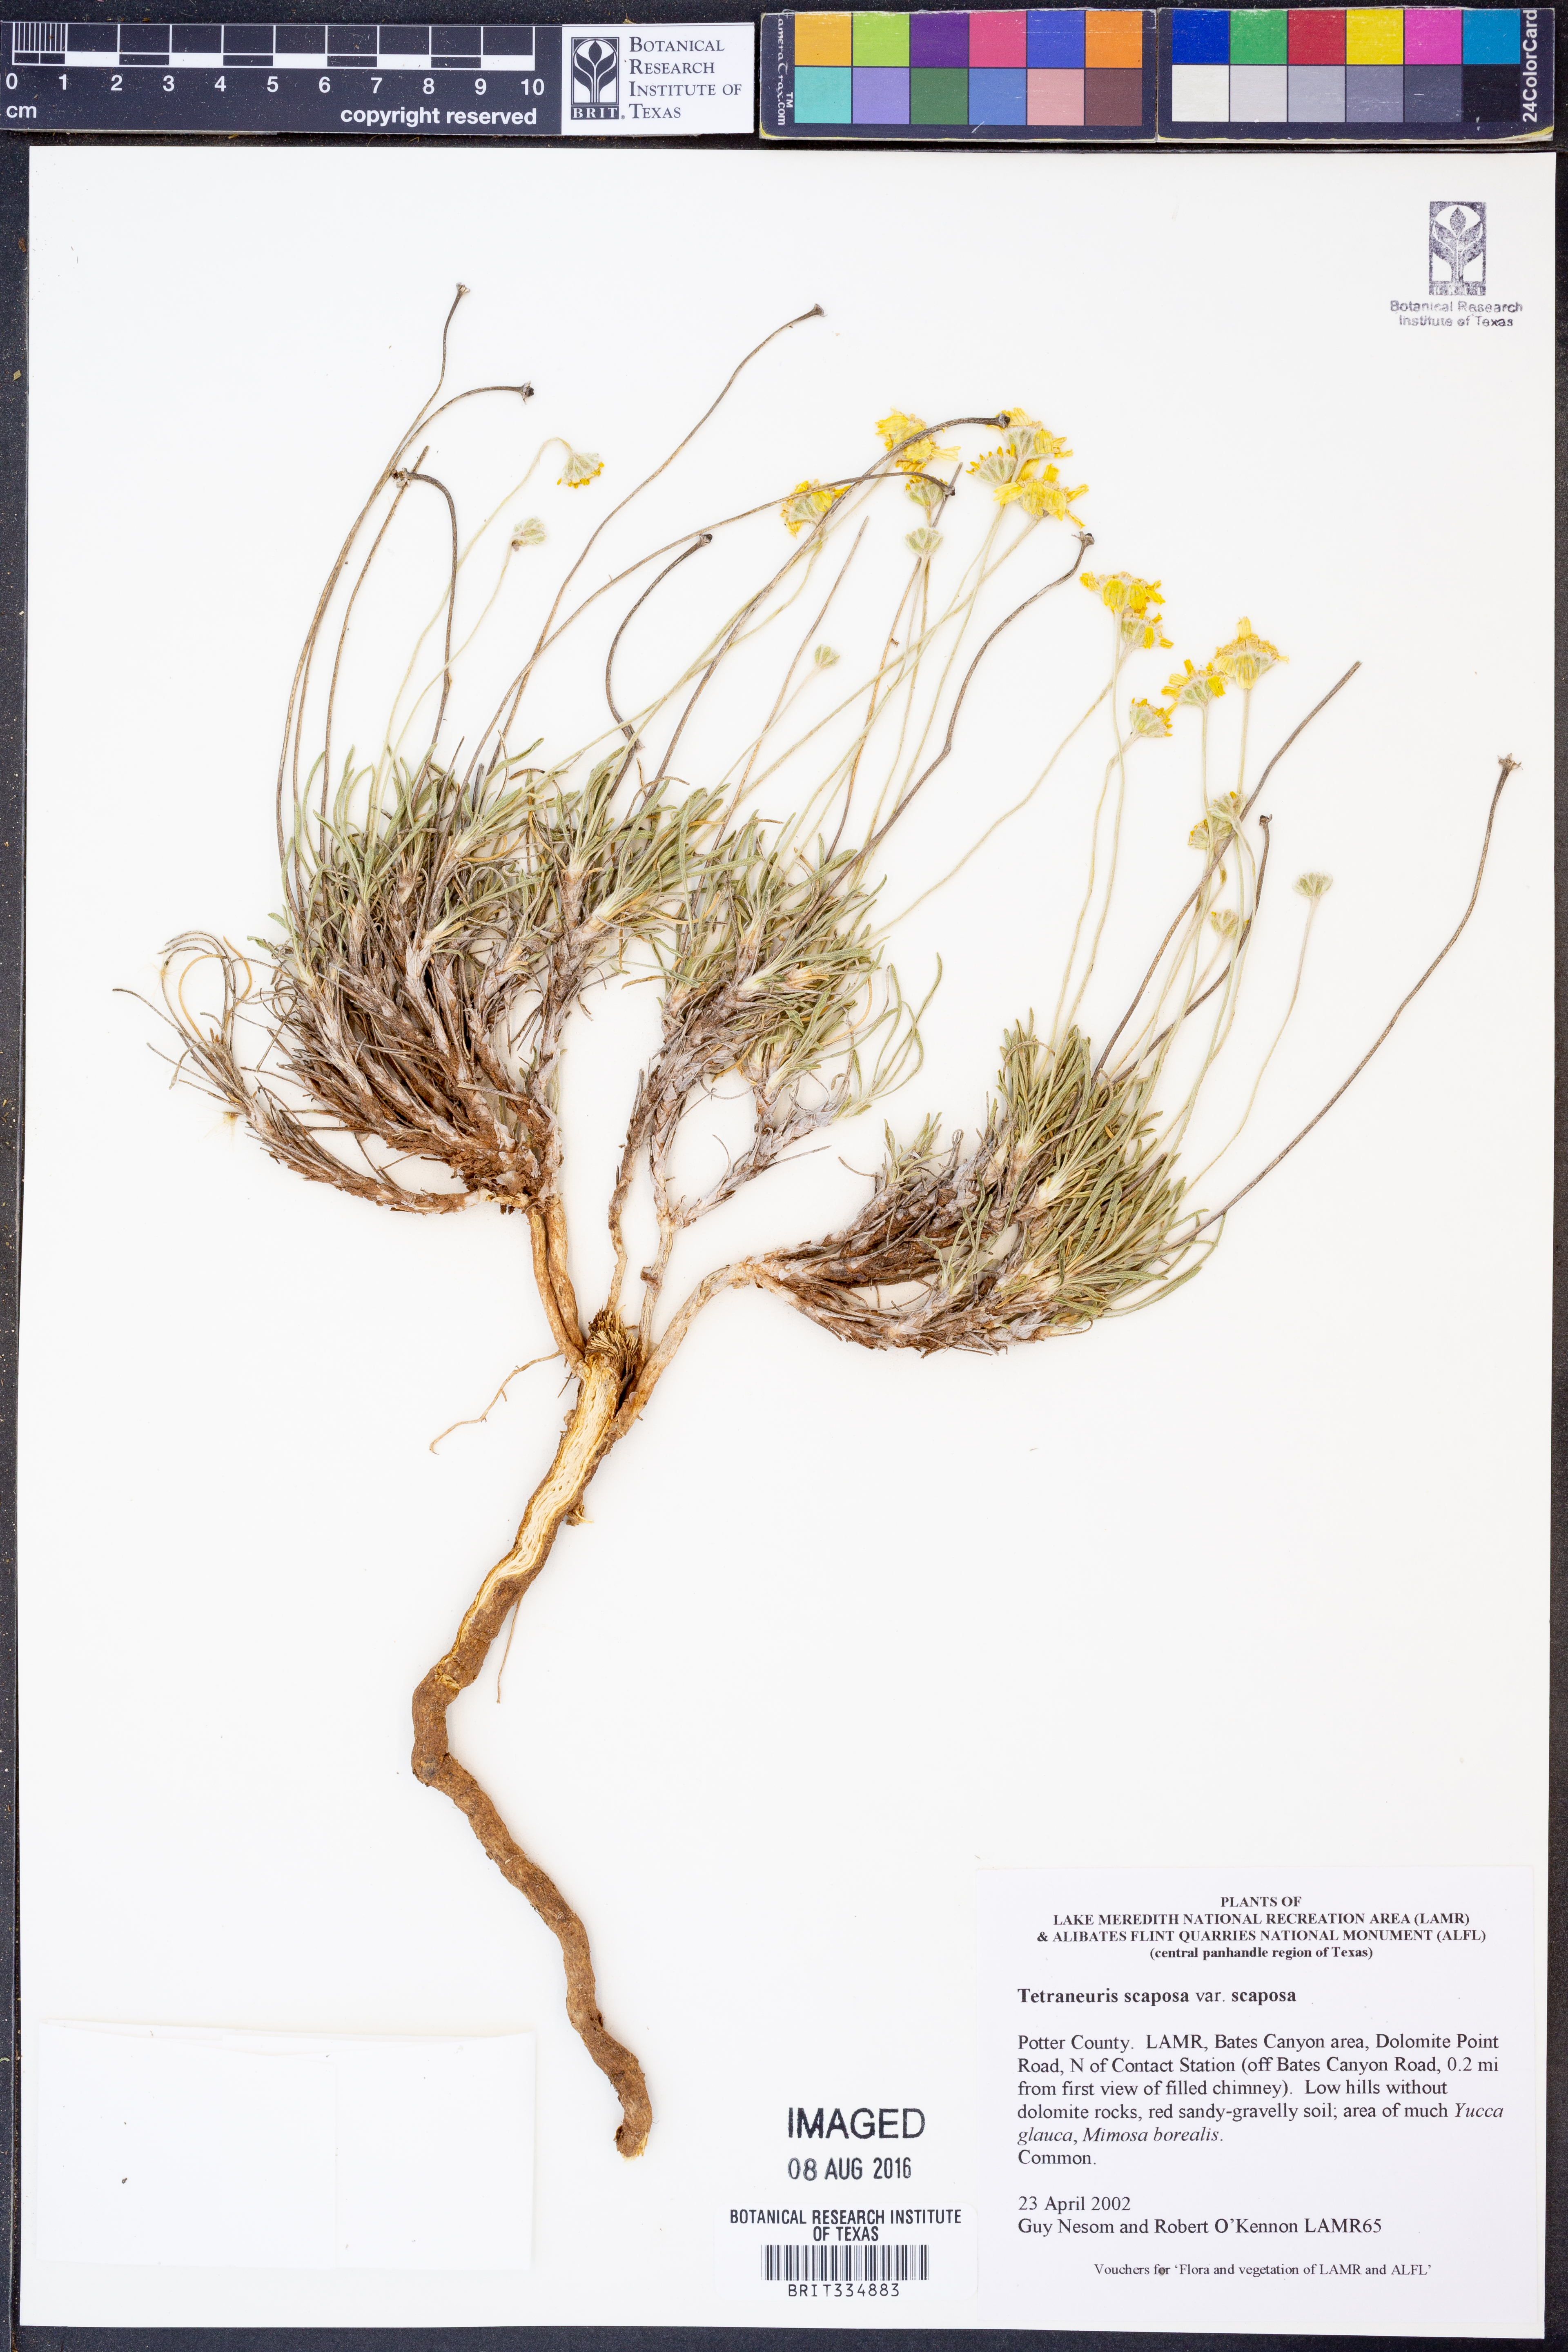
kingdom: Plantae
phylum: Tracheophyta
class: Magnoliopsida
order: Asterales
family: Asteraceae
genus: Tetraneuris
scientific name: Tetraneuris scaposa
